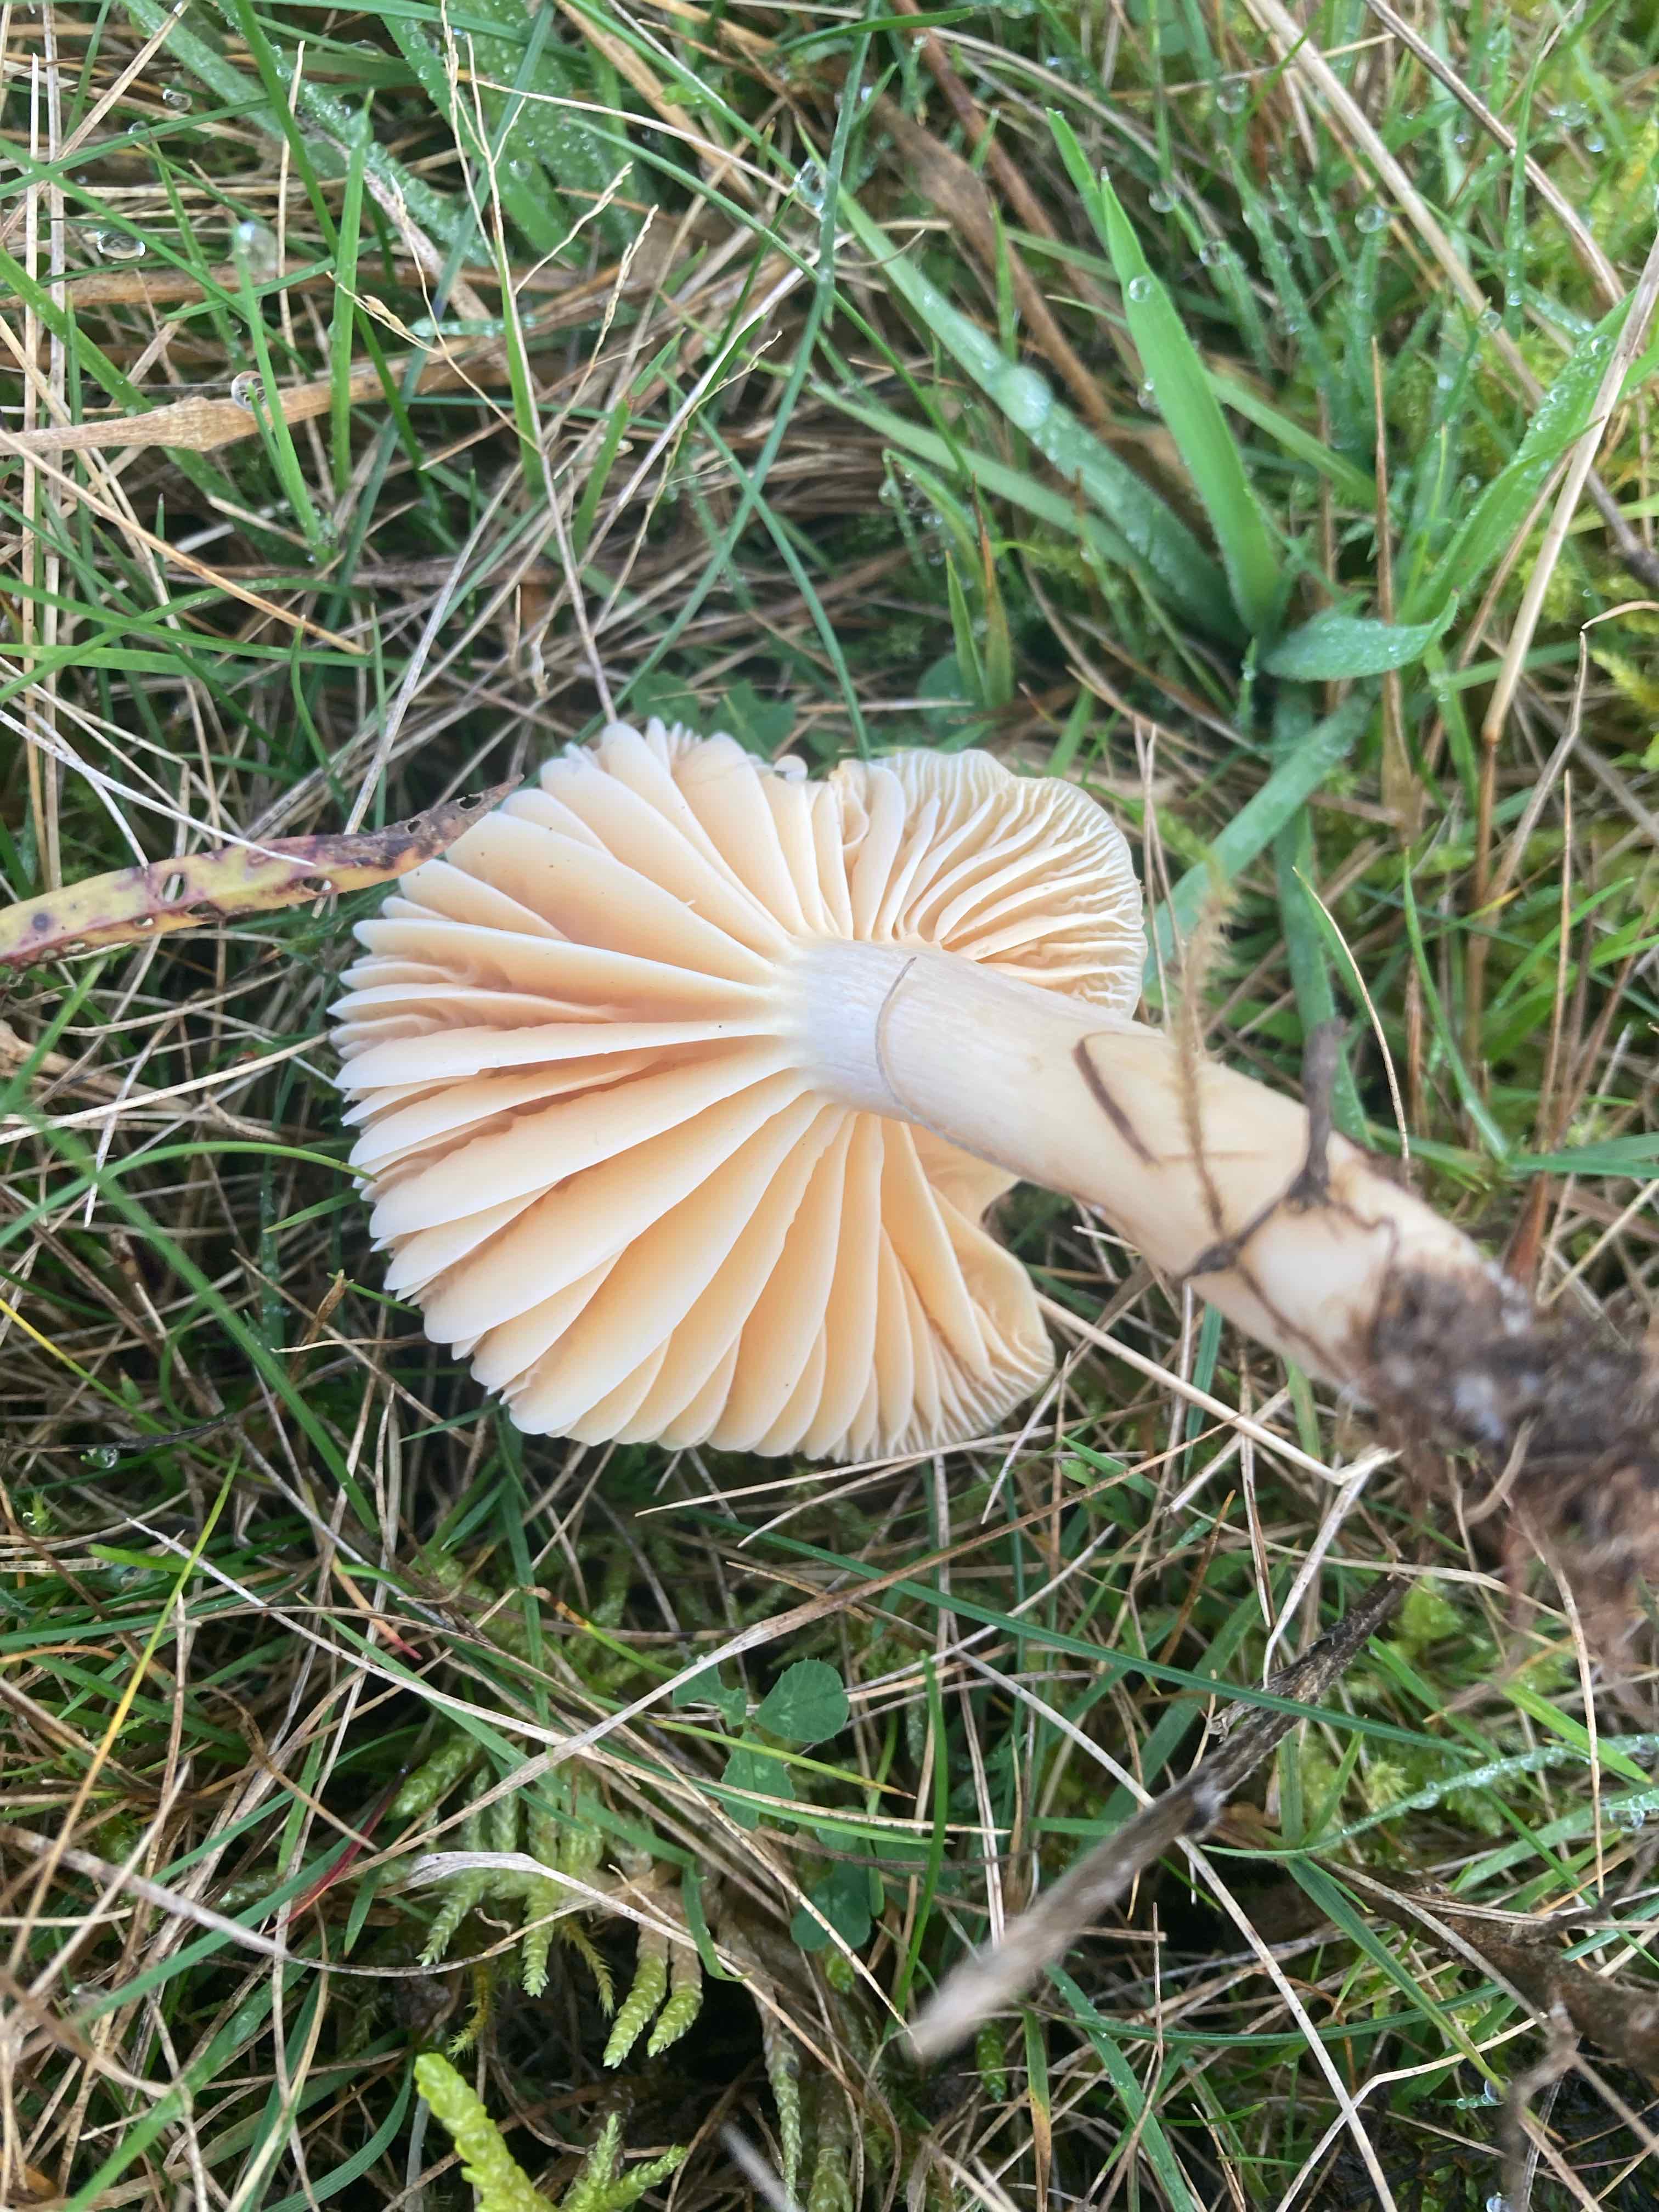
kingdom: Fungi
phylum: Basidiomycota
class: Agaricomycetes
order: Agaricales
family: Hygrophoraceae
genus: Cuphophyllus
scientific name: Cuphophyllus pratensis
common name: eng-vokshat
